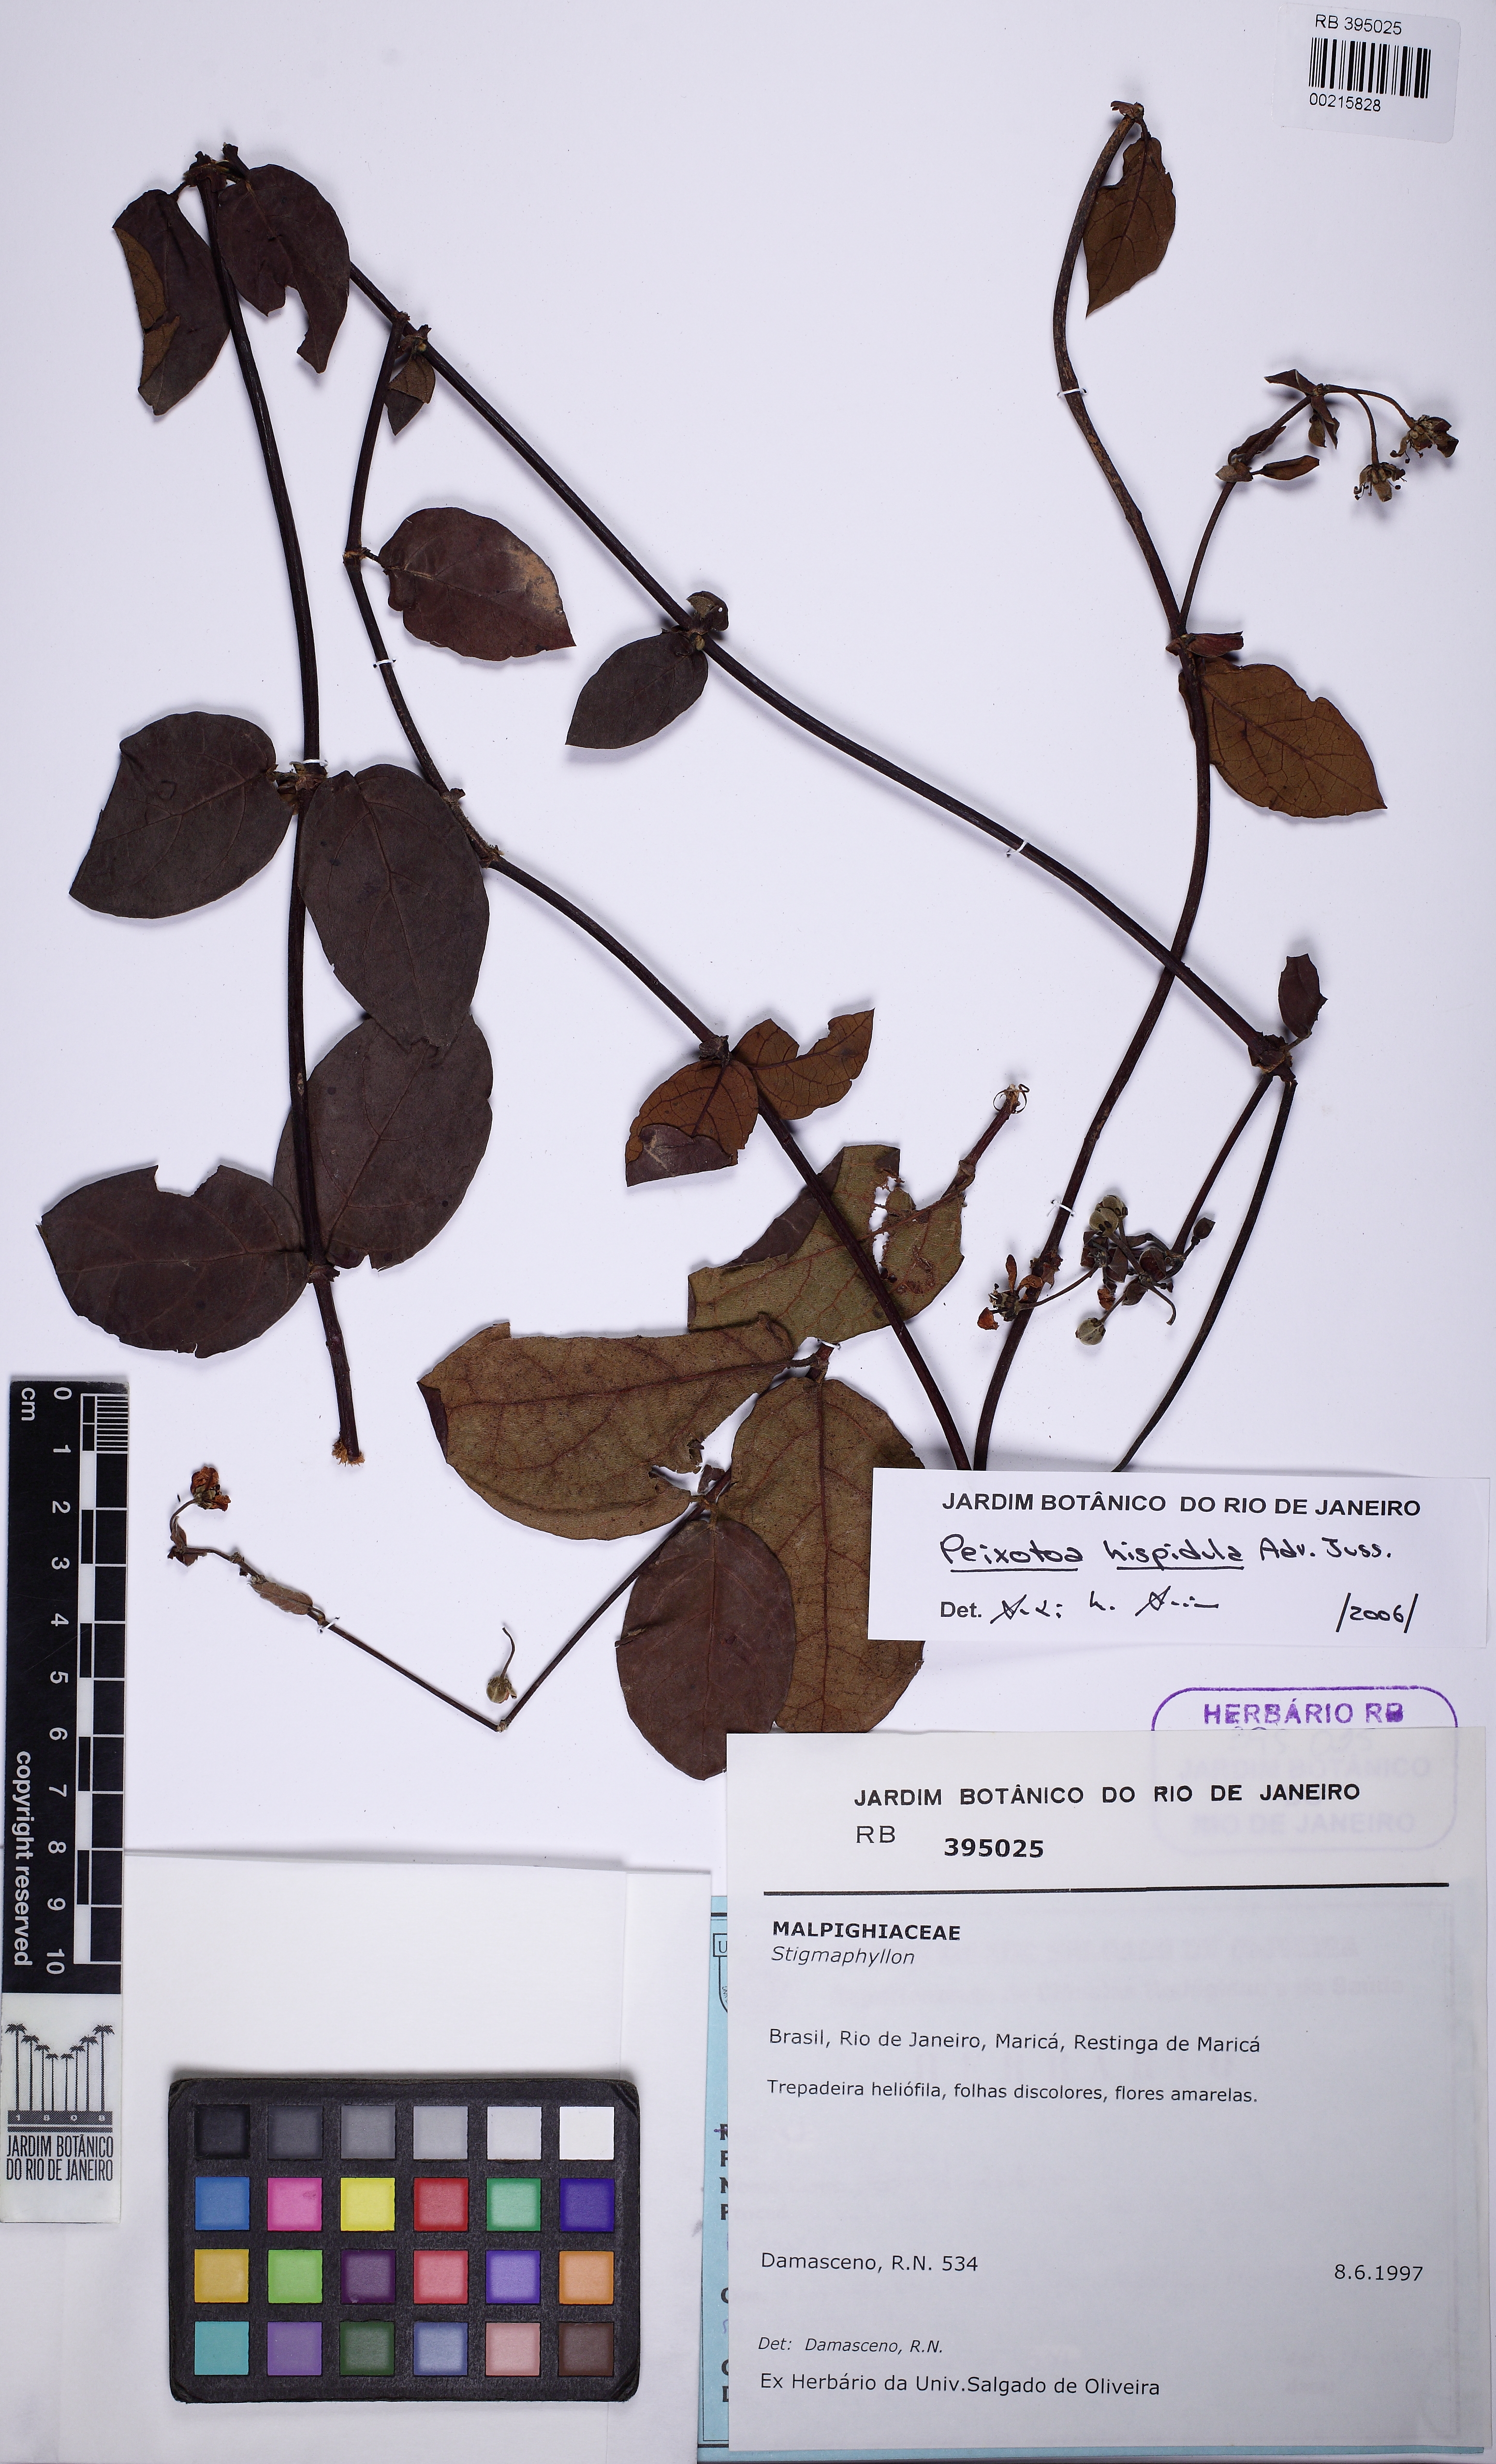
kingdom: Plantae
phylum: Tracheophyta
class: Magnoliopsida
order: Malpighiales
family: Malpighiaceae
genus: Peixotoa
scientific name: Peixotoa hispidula
